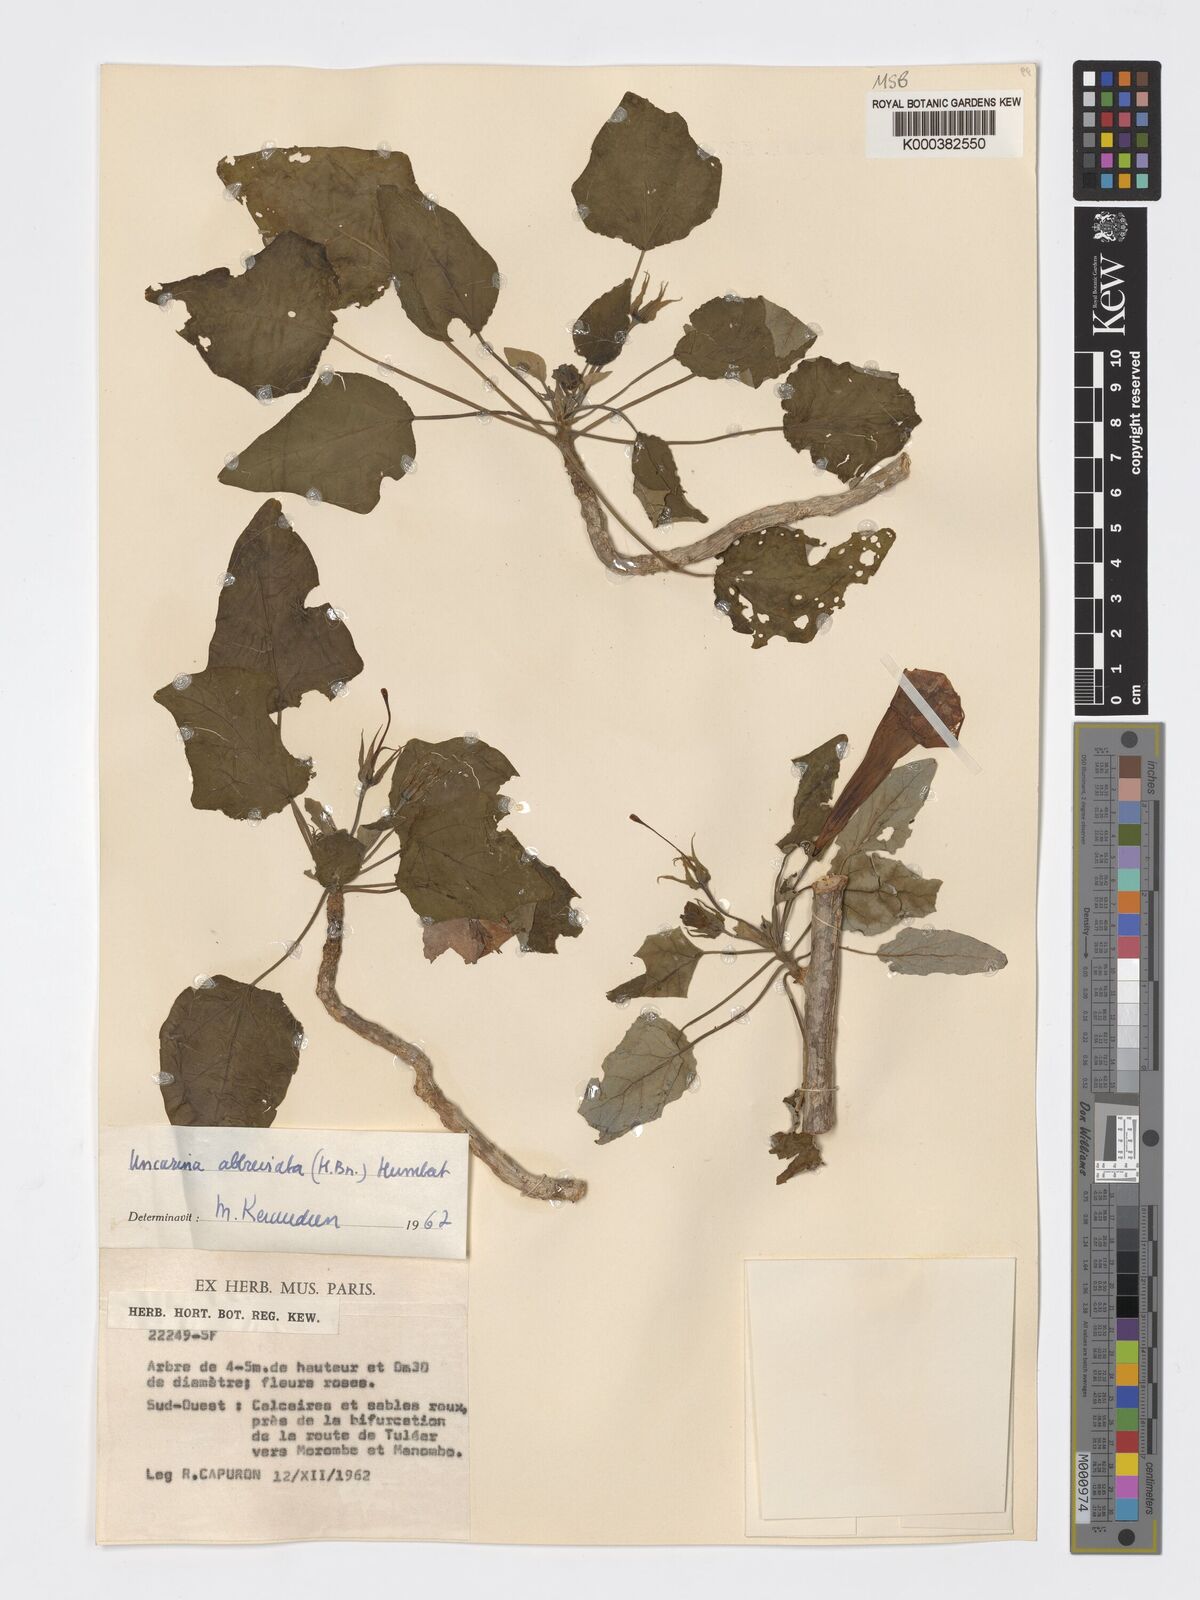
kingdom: Plantae
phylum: Tracheophyta
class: Magnoliopsida
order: Lamiales
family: Pedaliaceae
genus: Uncarina
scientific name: Uncarina abbreviata
